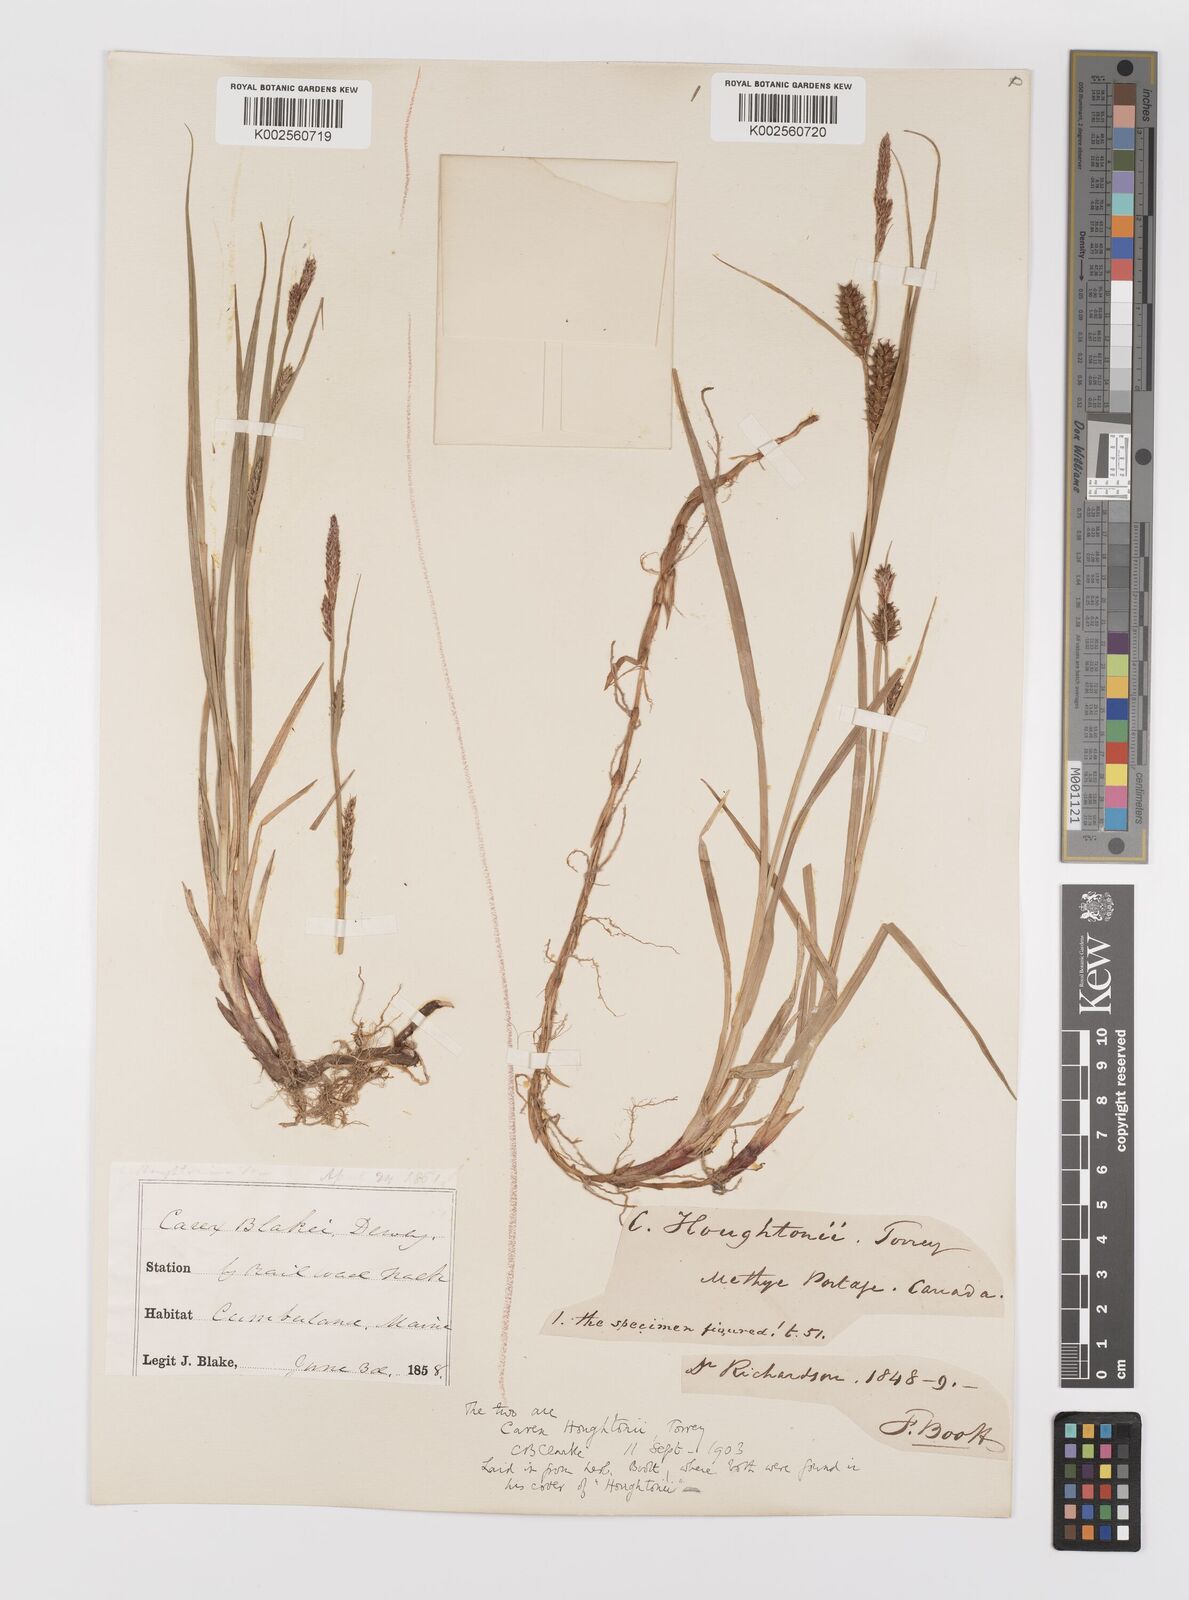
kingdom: Plantae
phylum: Tracheophyta
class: Liliopsida
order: Poales
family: Cyperaceae
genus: Carex
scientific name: Carex houghtoniana
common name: Houghton's sedge
